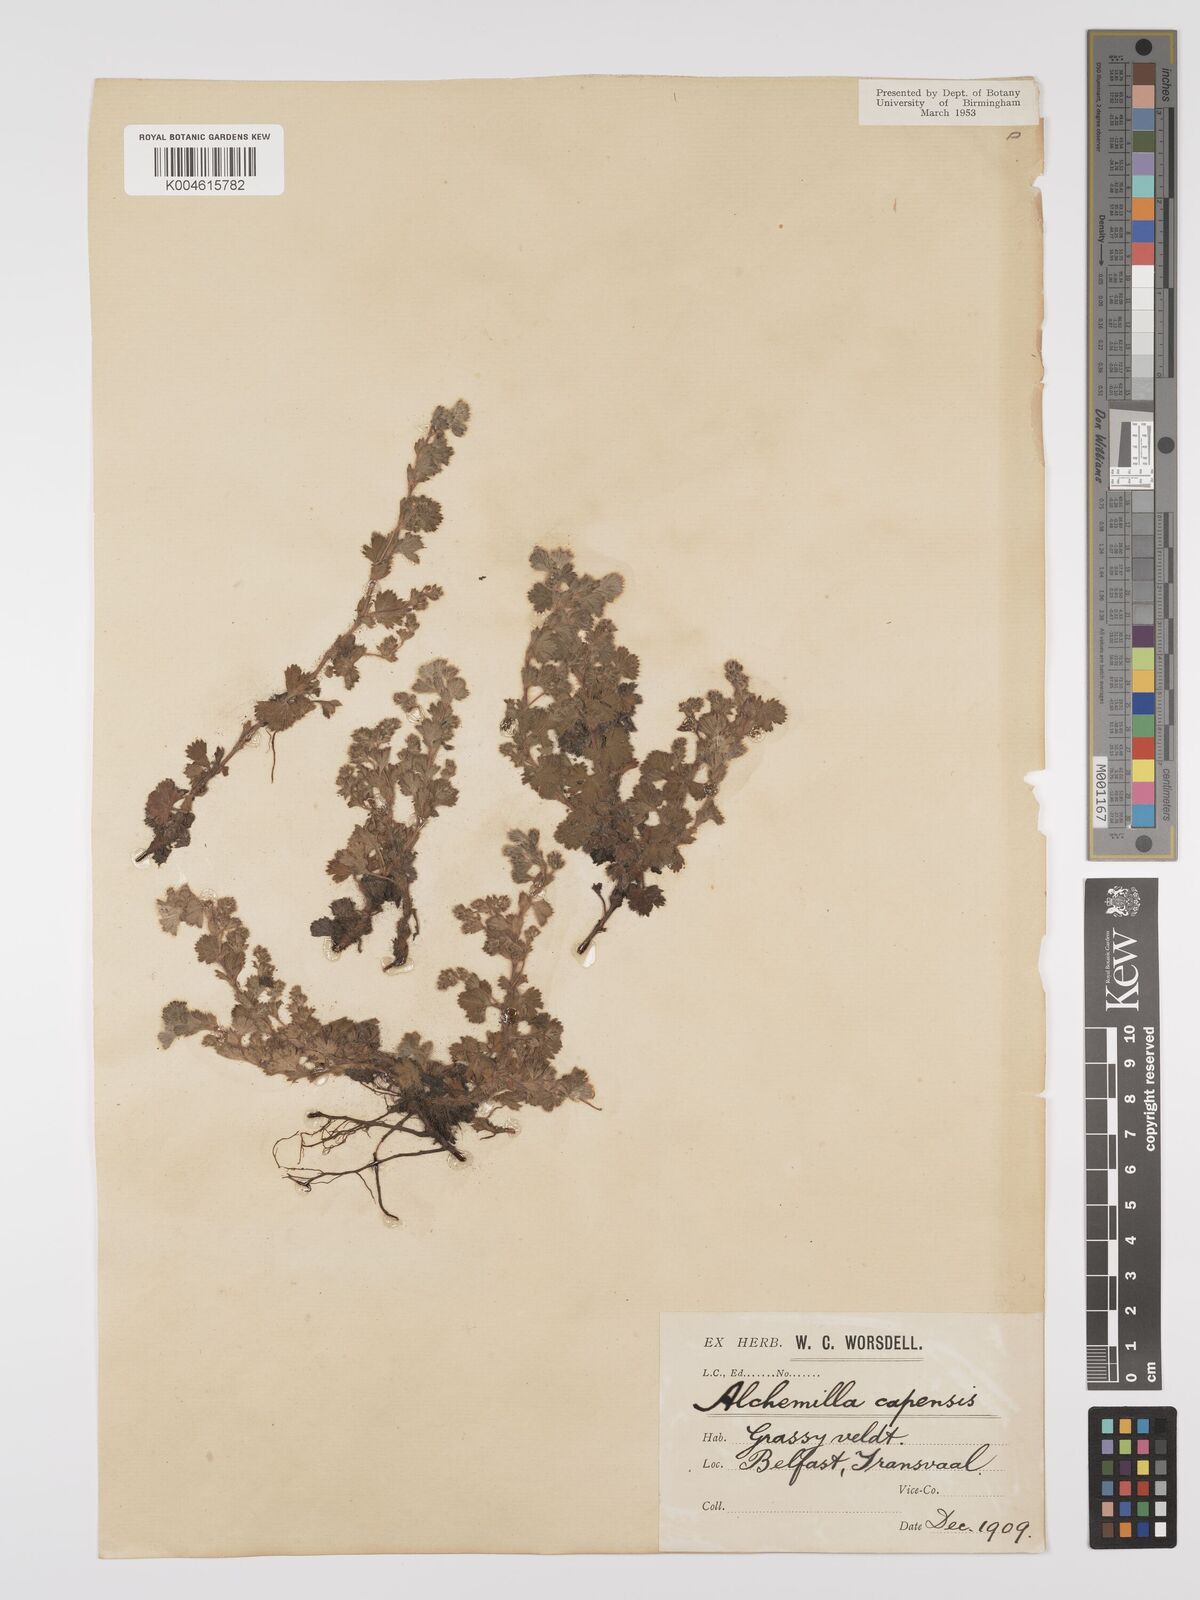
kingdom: Plantae
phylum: Tracheophyta
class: Magnoliopsida
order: Rosales
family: Rosaceae
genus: Alchemilla
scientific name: Alchemilla woodii
